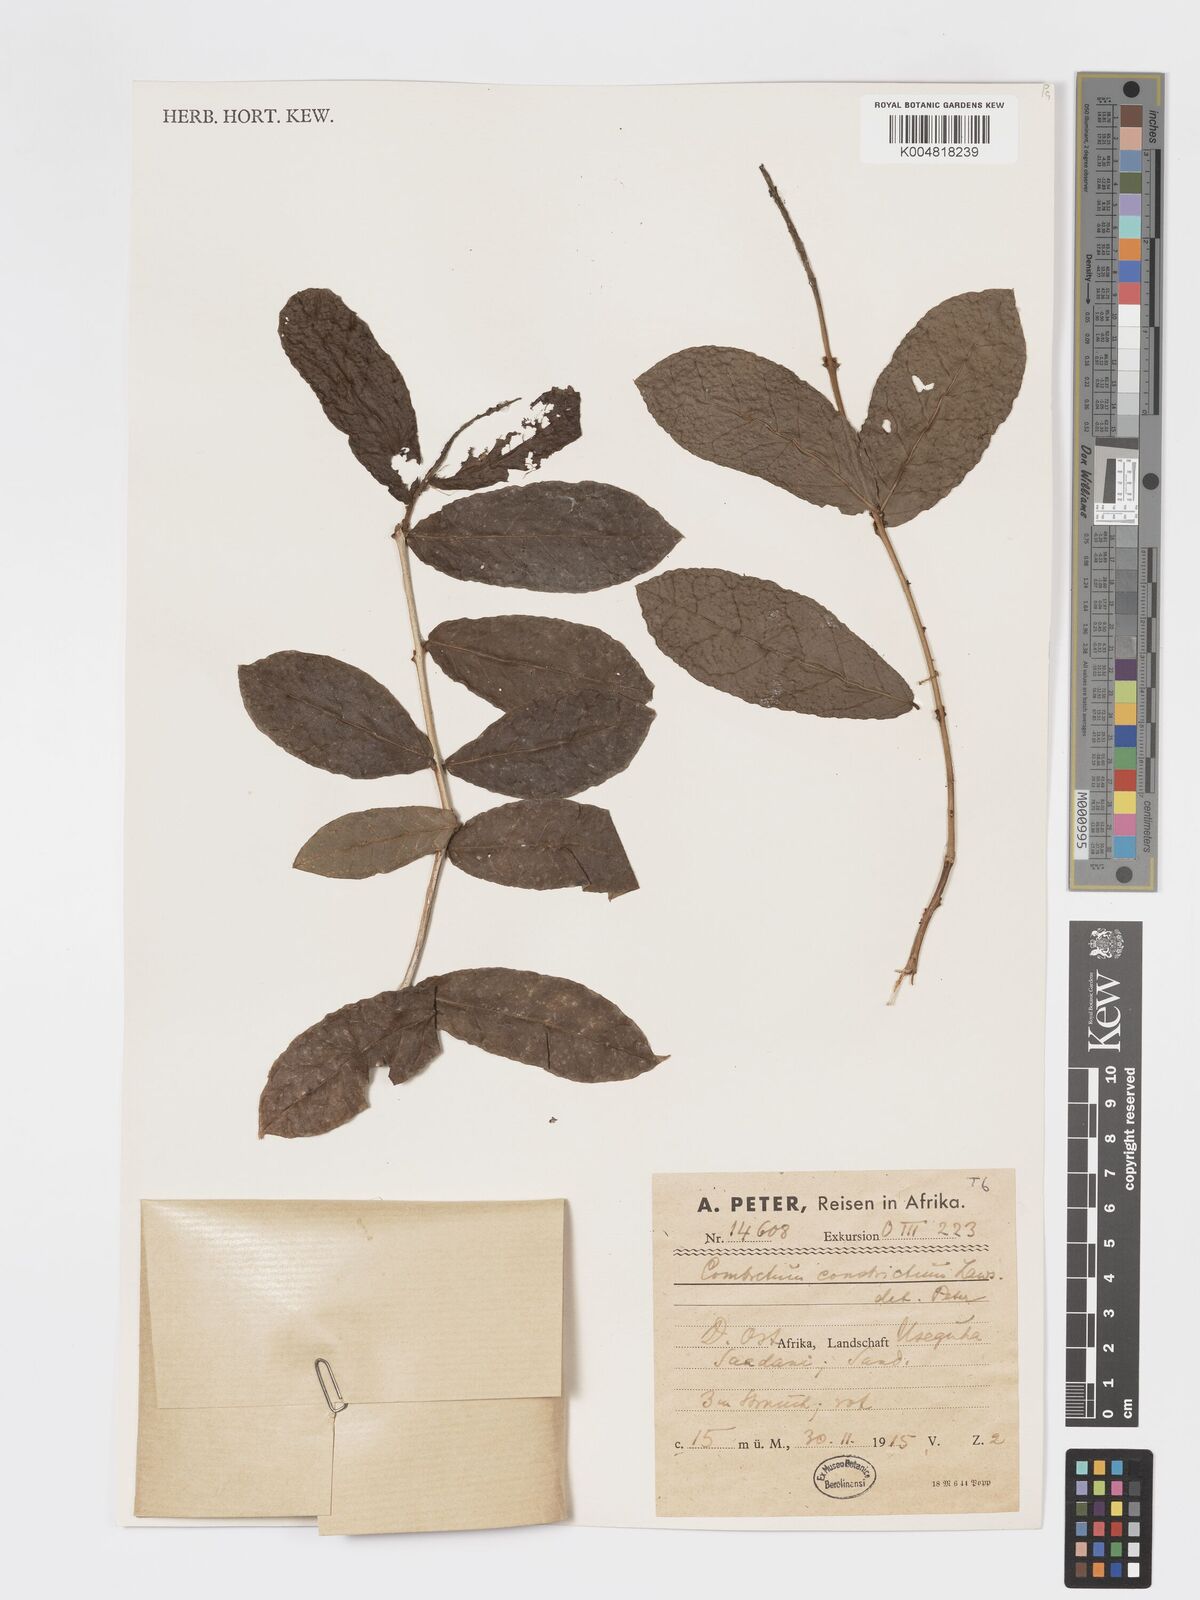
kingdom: Plantae
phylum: Tracheophyta
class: Magnoliopsida
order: Myrtales
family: Combretaceae
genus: Combretum
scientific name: Combretum constrictum
